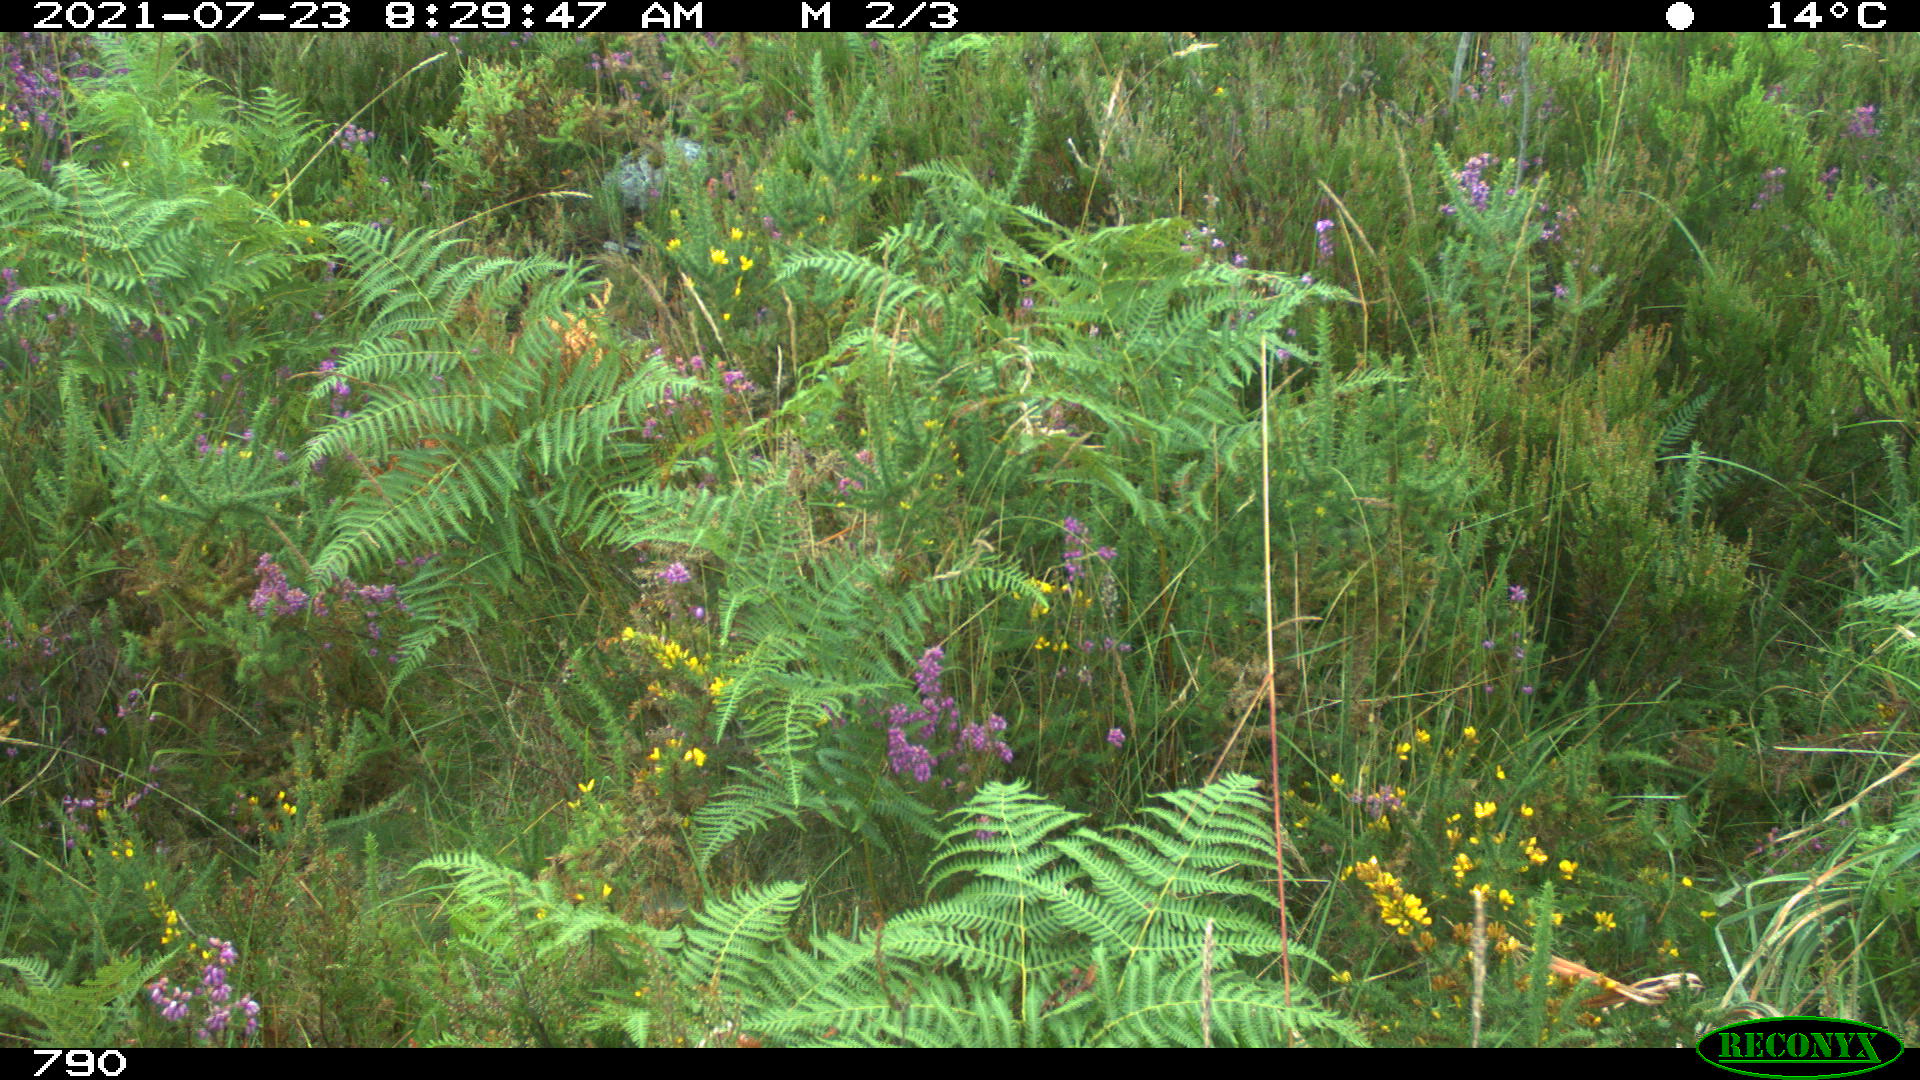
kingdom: Animalia
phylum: Chordata
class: Mammalia
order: Artiodactyla
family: Bovidae
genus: Bos
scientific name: Bos taurus
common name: Domesticated cattle
